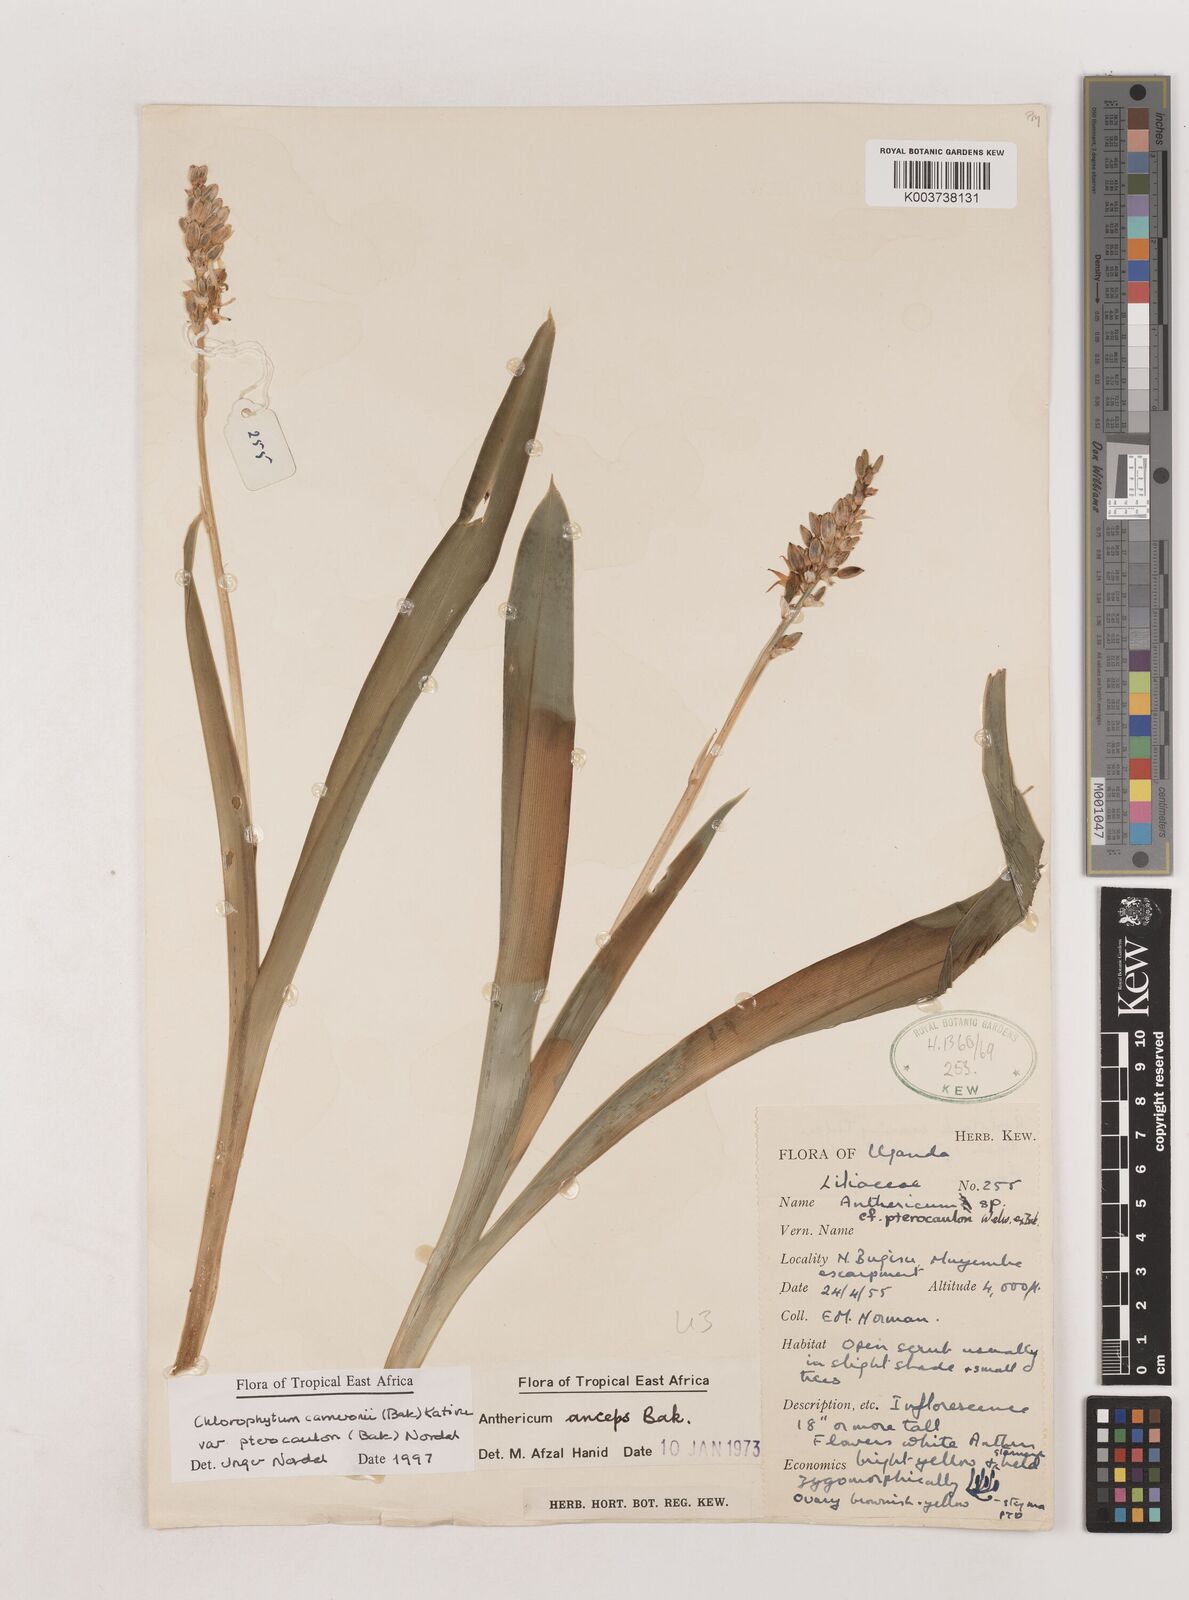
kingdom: Plantae
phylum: Tracheophyta
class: Liliopsida
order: Asparagales
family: Asparagaceae
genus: Chlorophytum
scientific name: Chlorophytum cameronii
